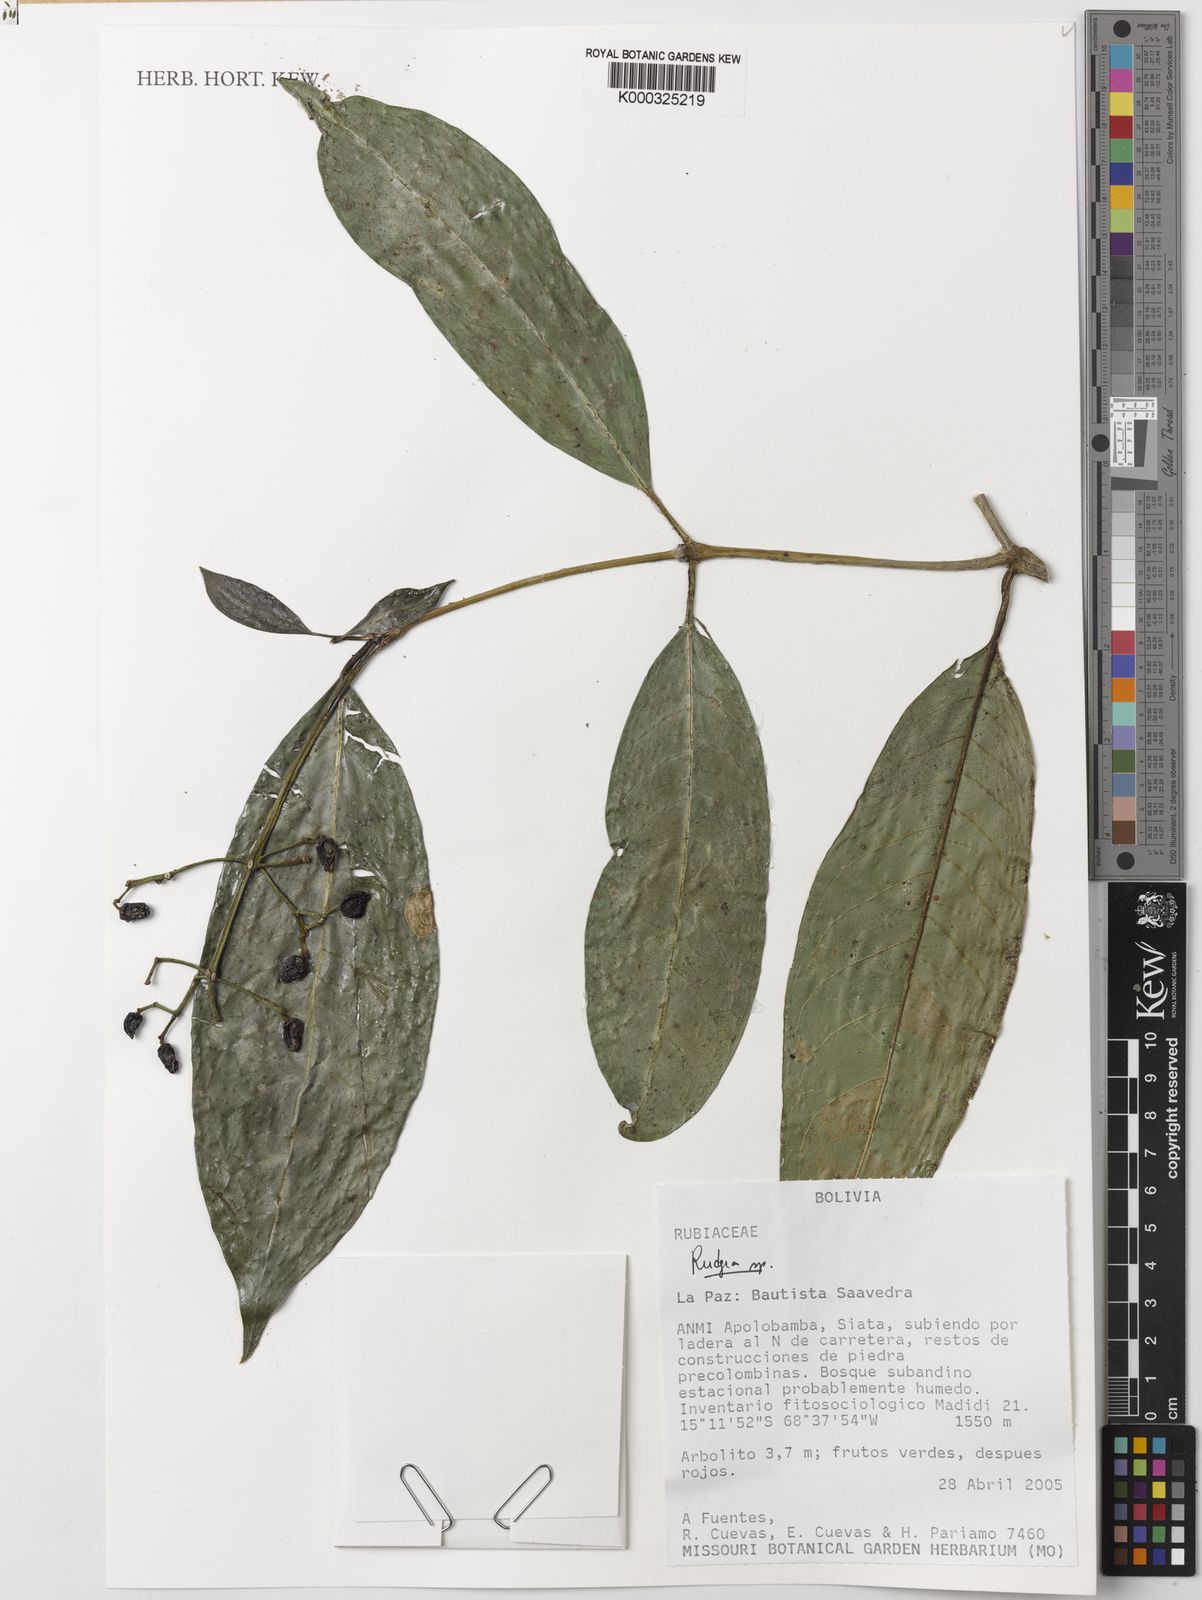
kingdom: Plantae
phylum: Tracheophyta
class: Magnoliopsida
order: Gentianales
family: Rubiaceae
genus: Rudgea
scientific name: Rudgea
